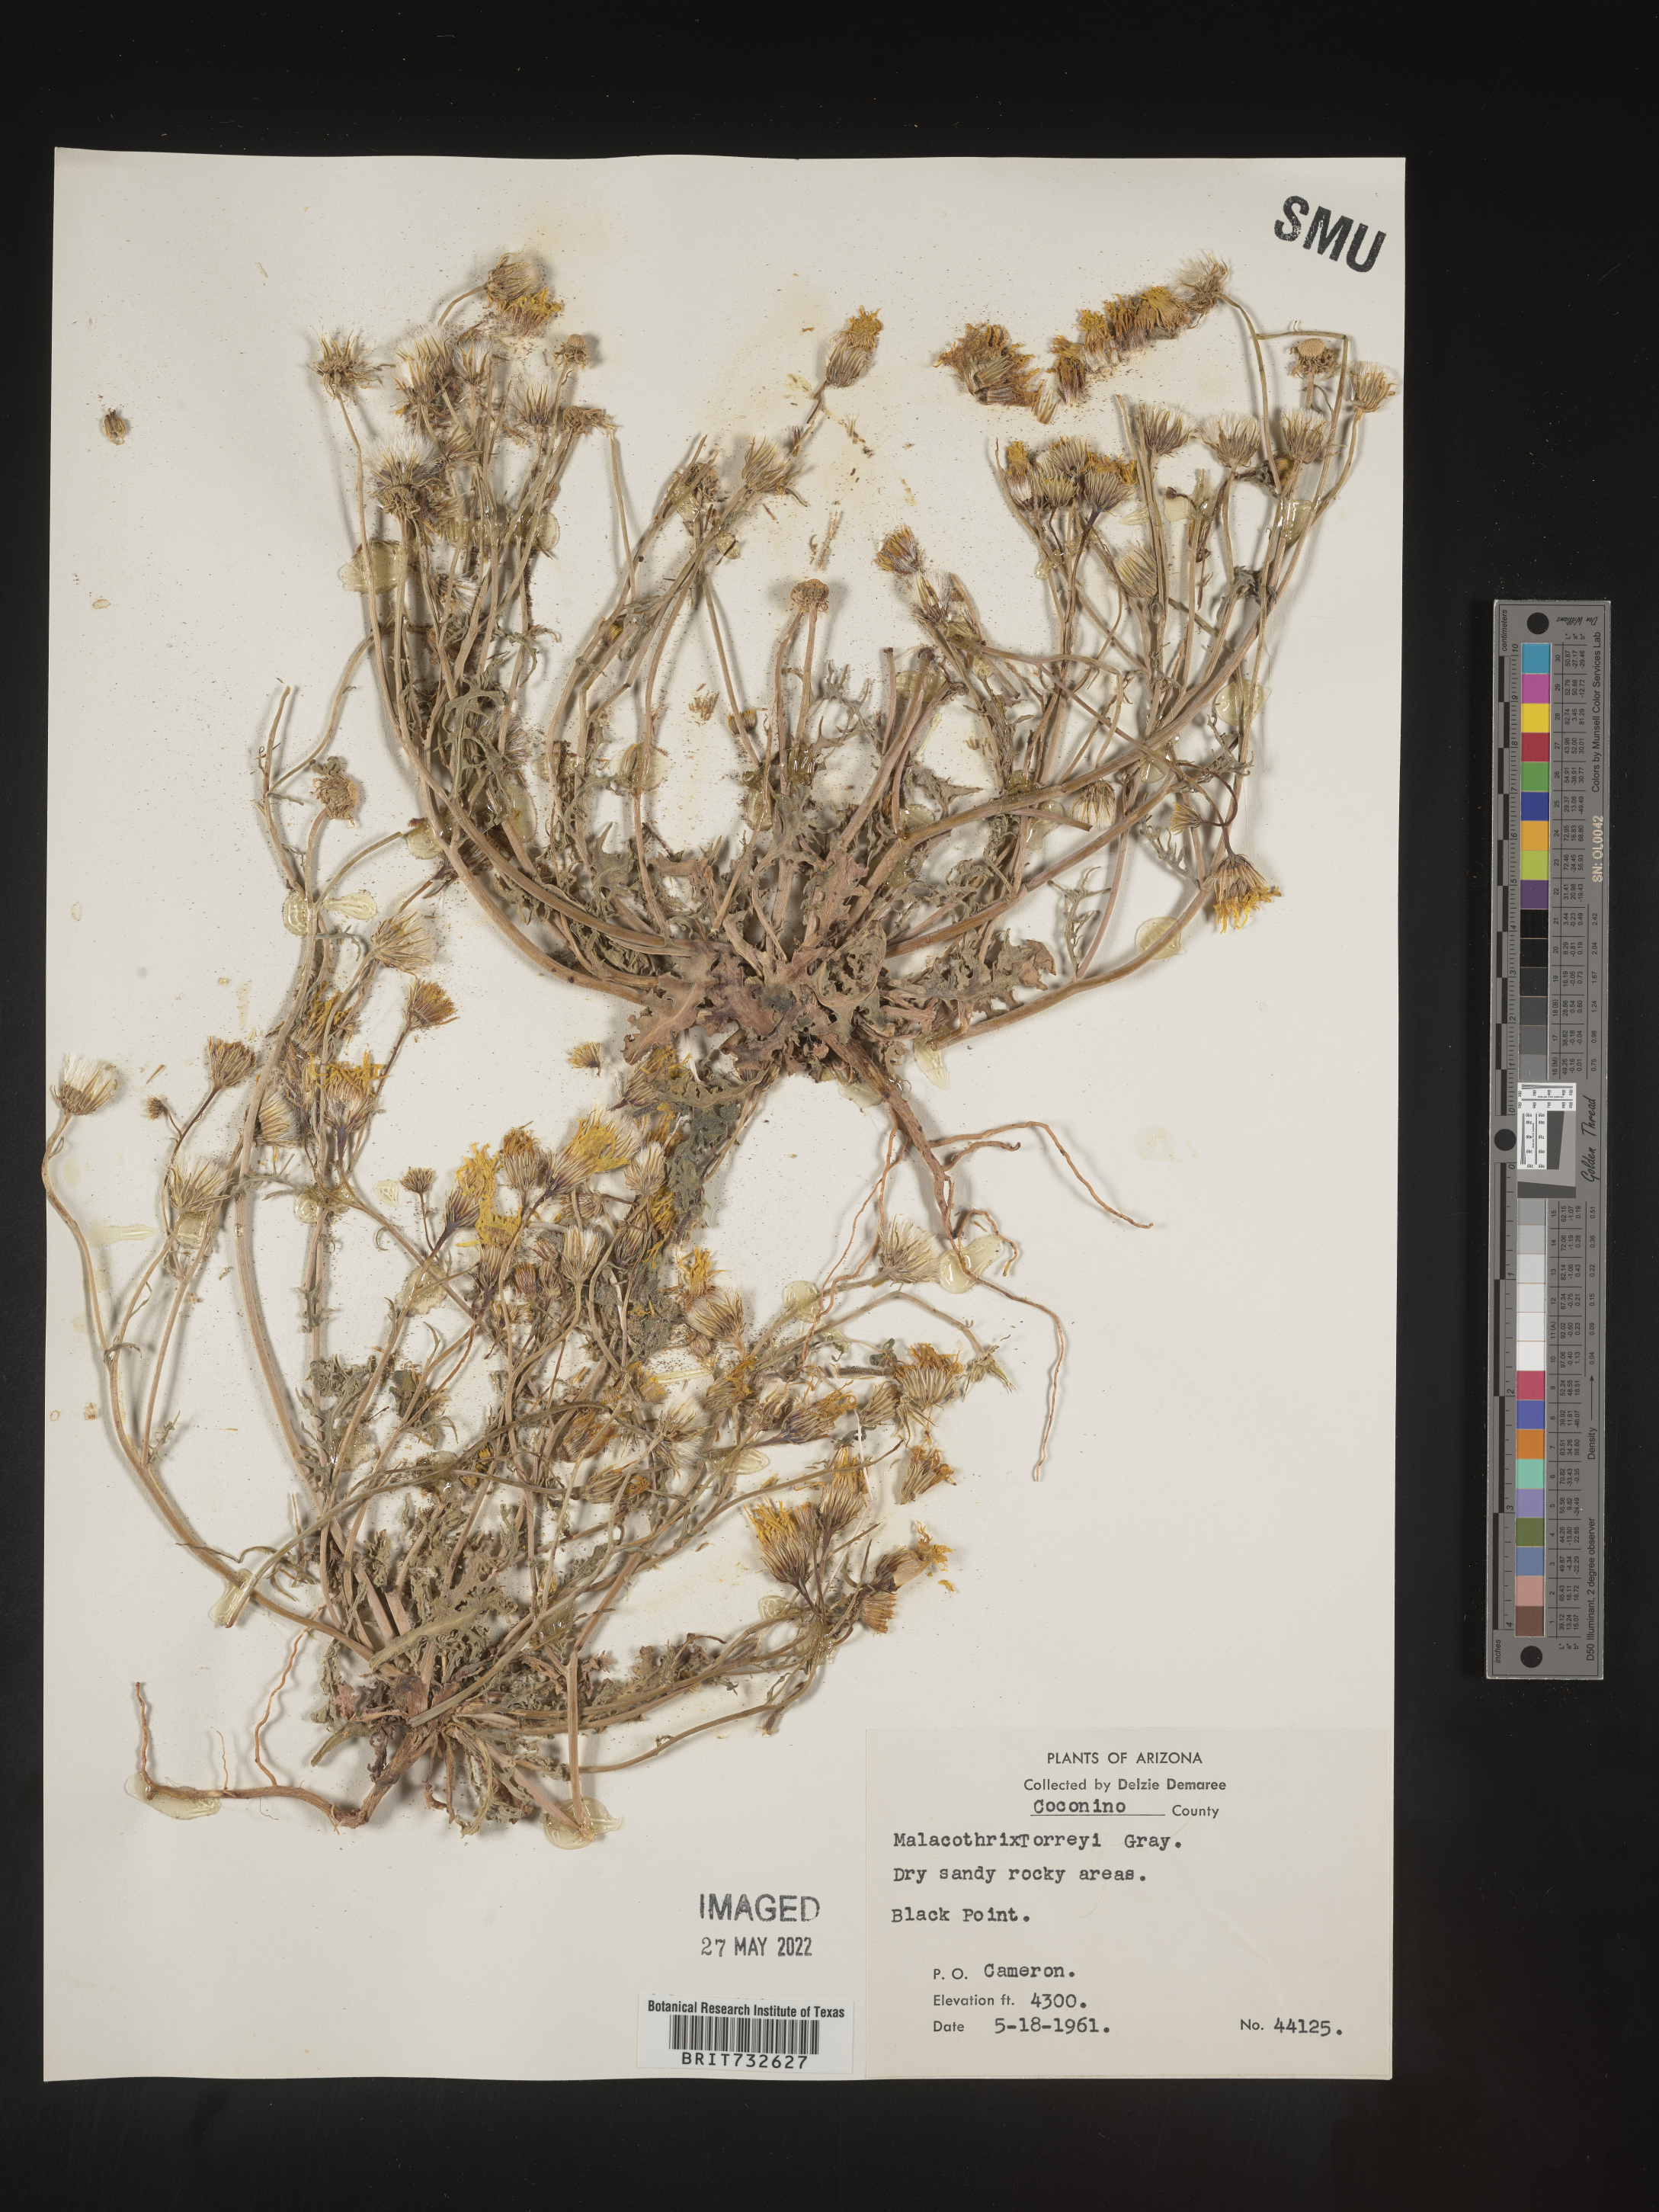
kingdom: Plantae
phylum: Tracheophyta
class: Magnoliopsida
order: Asterales
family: Asteraceae
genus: Malacothrix
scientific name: Malacothrix torreyi
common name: Torrey's desert-dandelion
